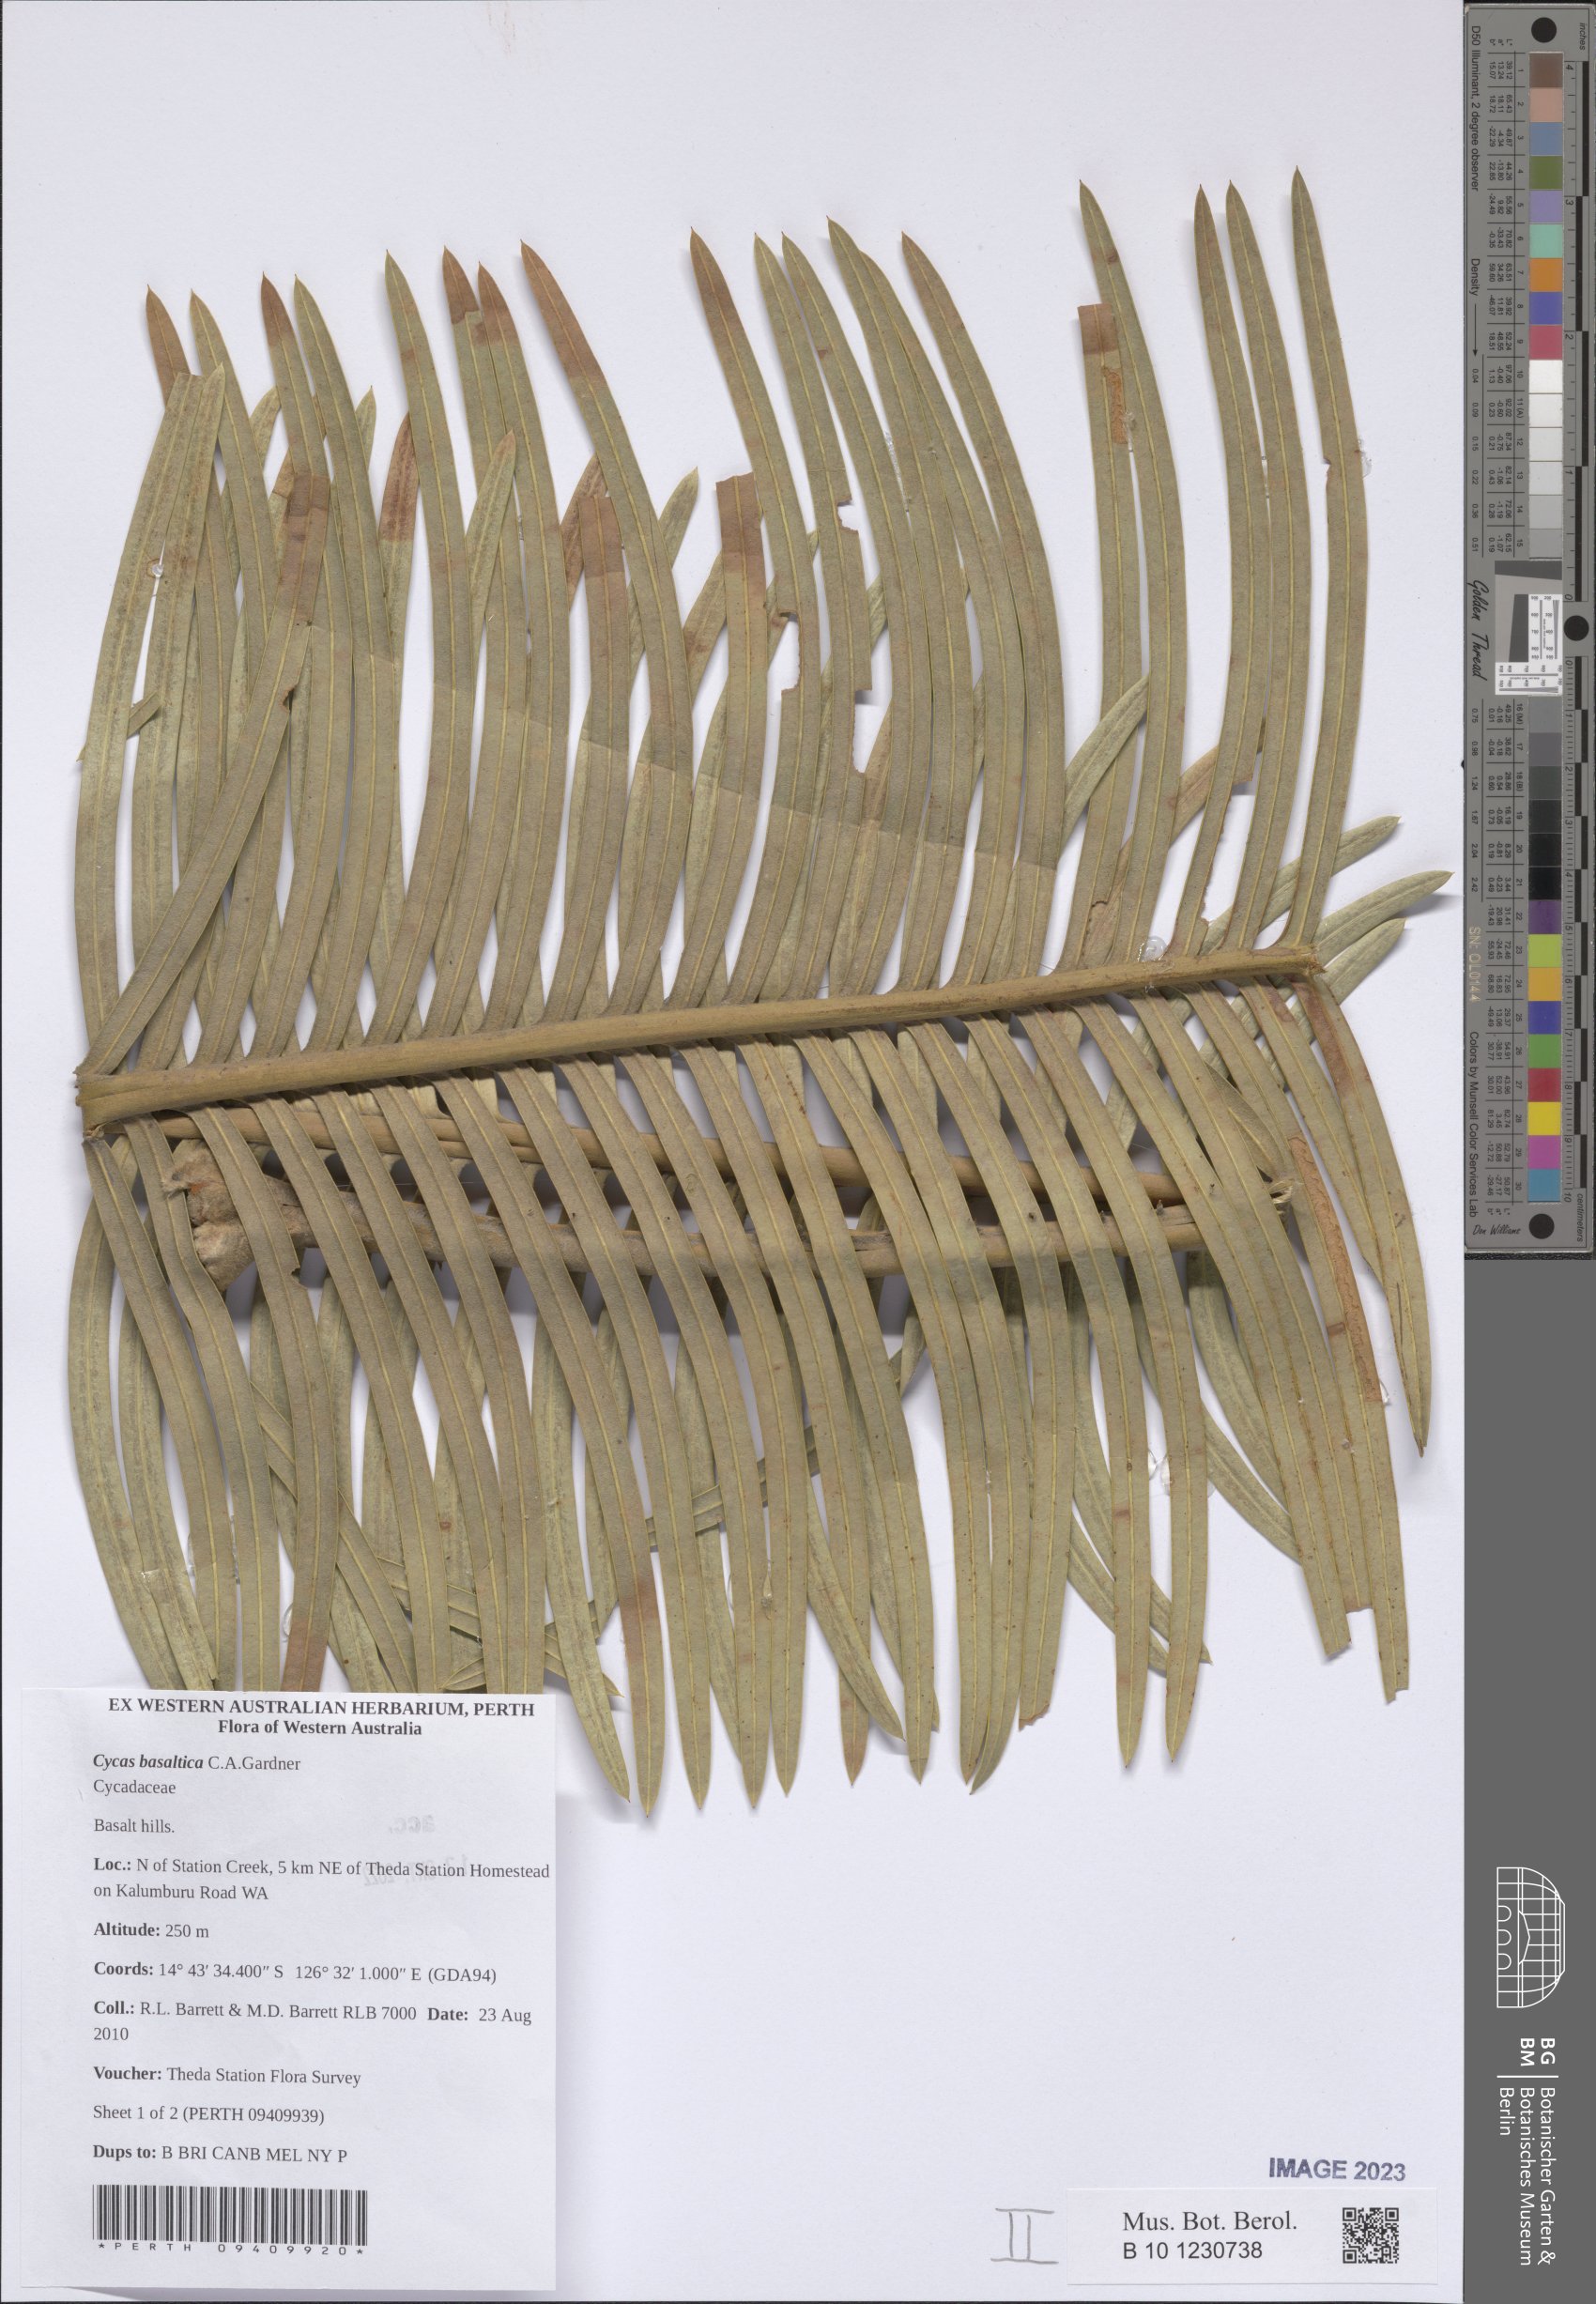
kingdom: Plantae
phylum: Tracheophyta
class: Cycadopsida
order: Cycadales
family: Cycadaceae
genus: Cycas
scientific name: Cycas basaltica
